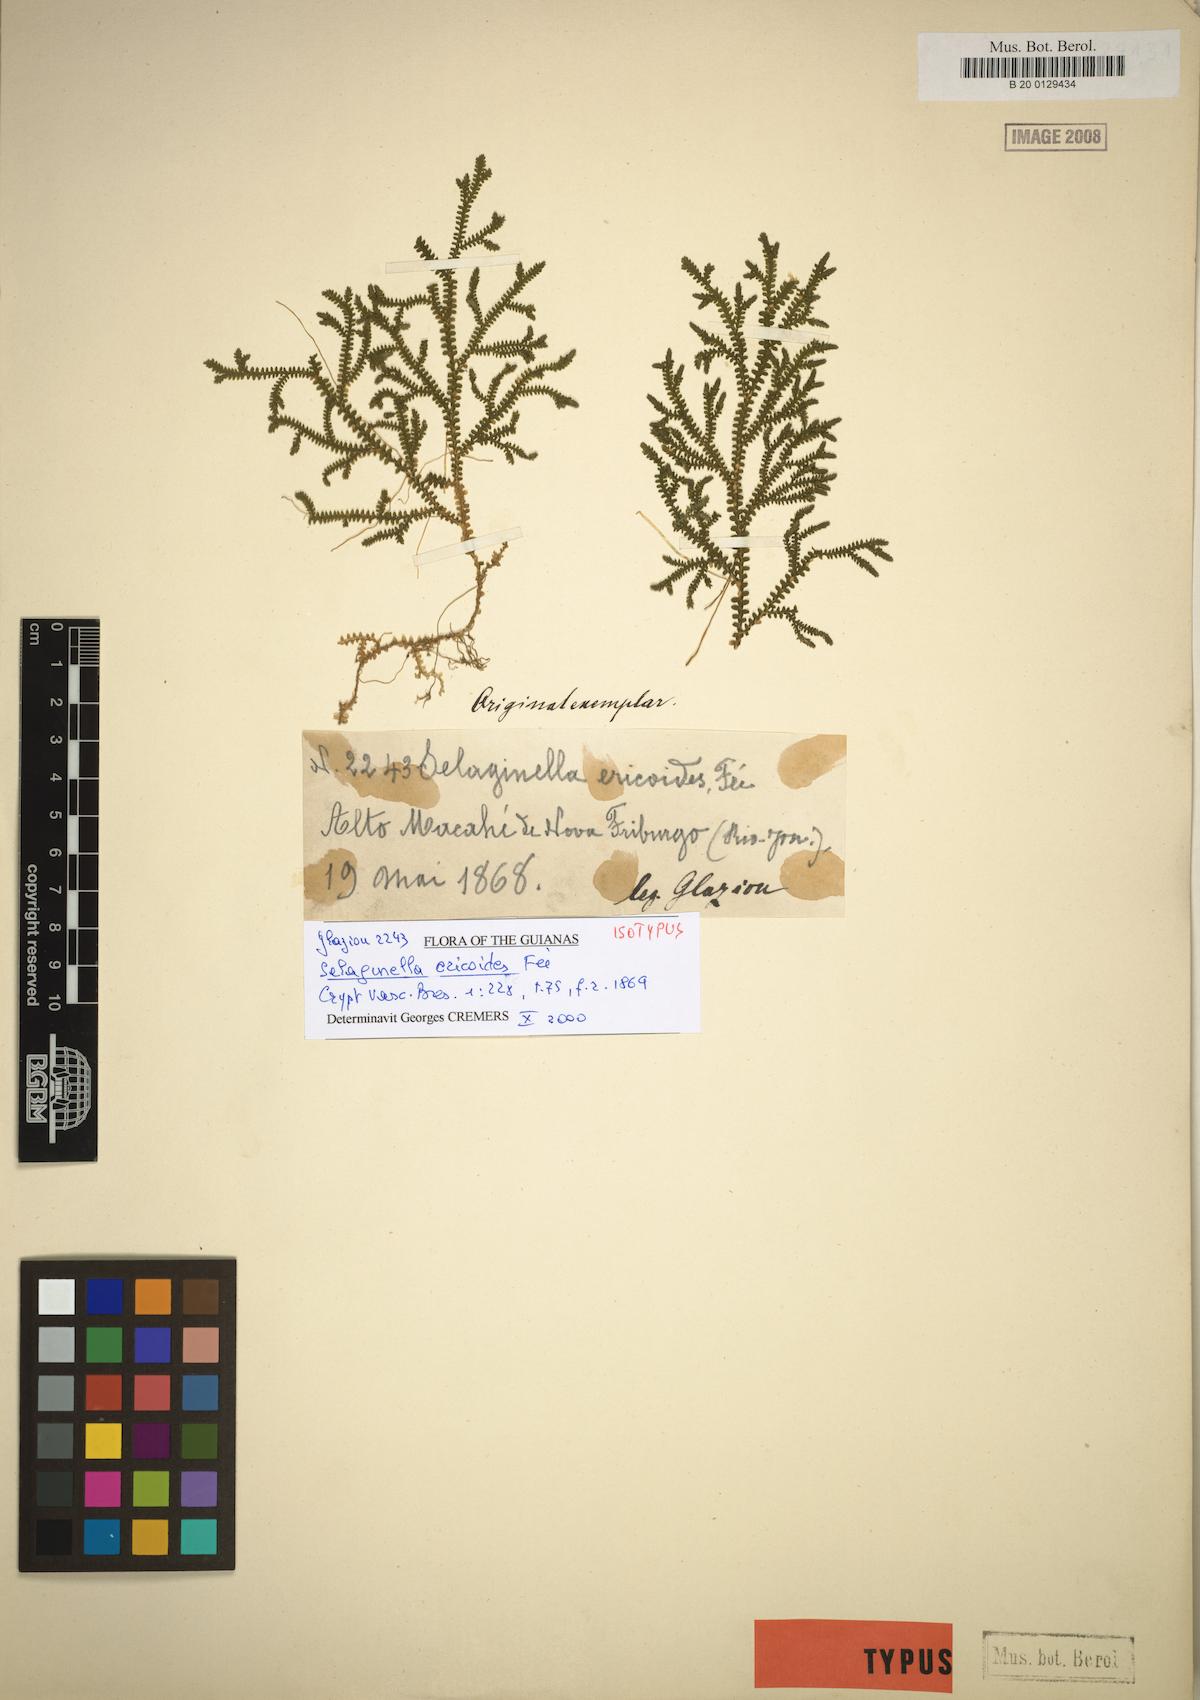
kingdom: Plantae
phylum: Tracheophyta
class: Lycopodiopsida
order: Selaginellales
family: Selaginellaceae
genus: Selaginella
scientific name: Selaginella macrostachya
